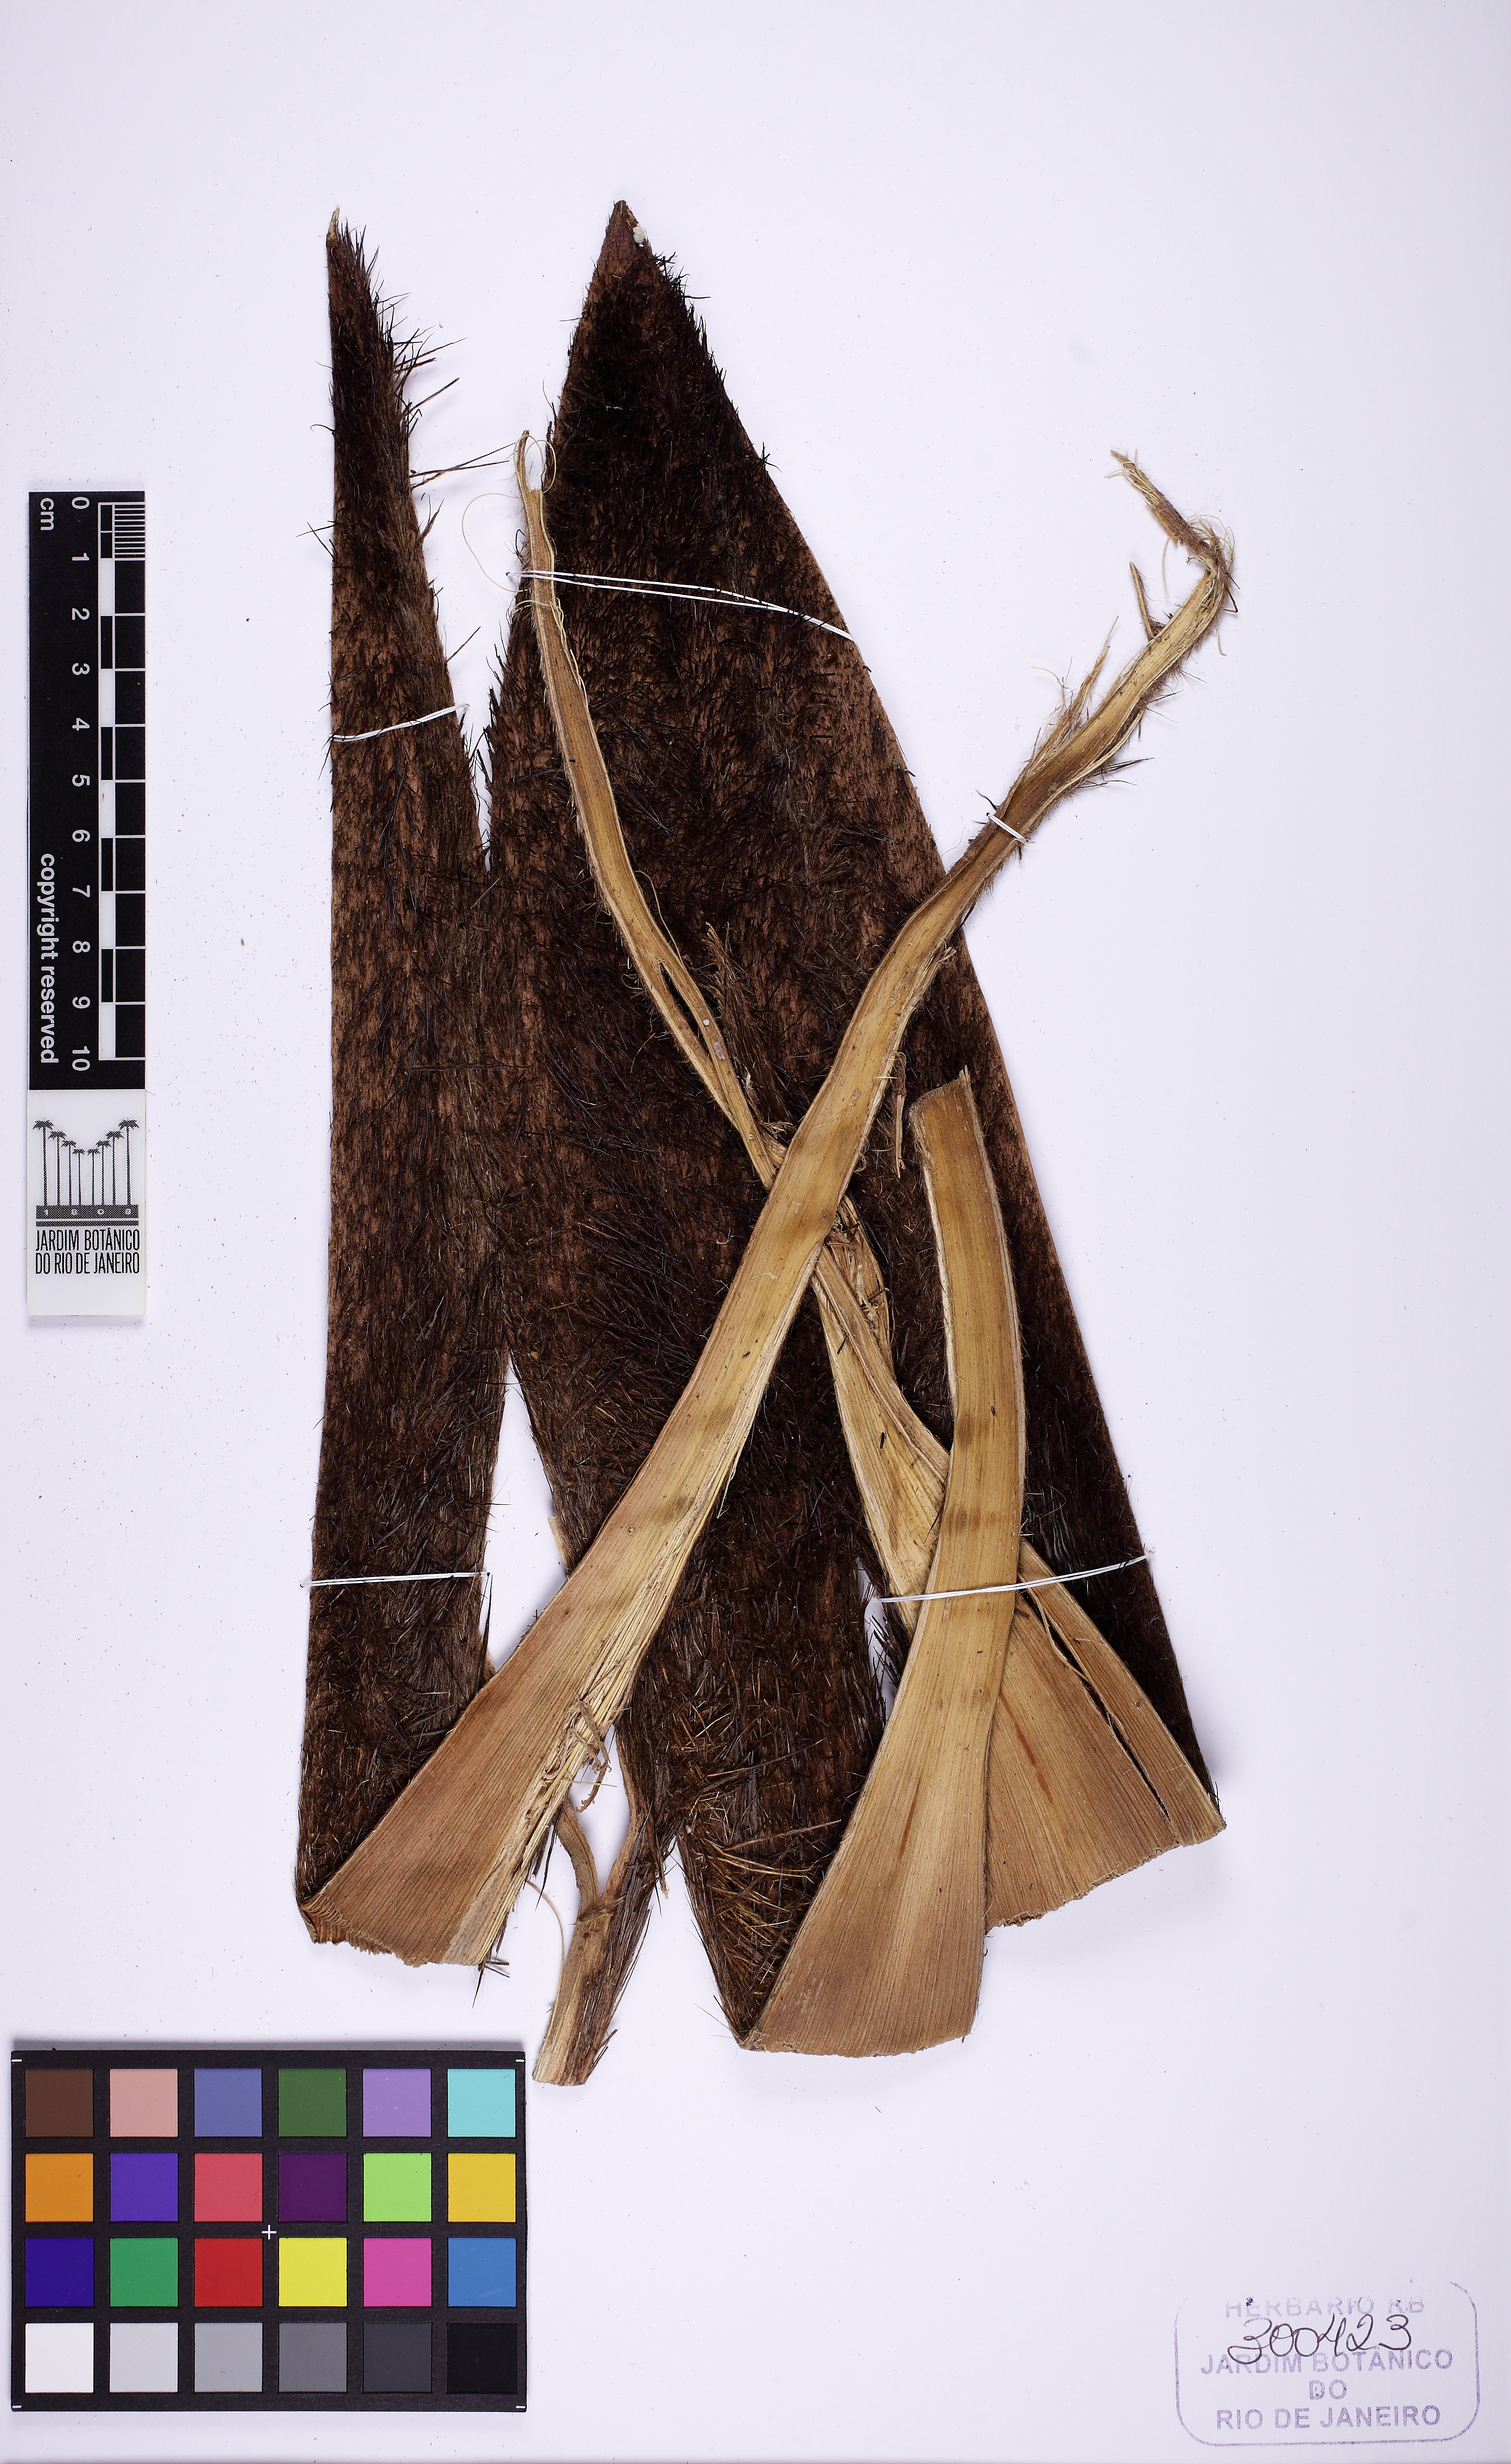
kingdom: Plantae
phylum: Tracheophyta
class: Liliopsida
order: Arecales
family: Arecaceae
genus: Astrocaryum
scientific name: Astrocaryum aculeatissimum
